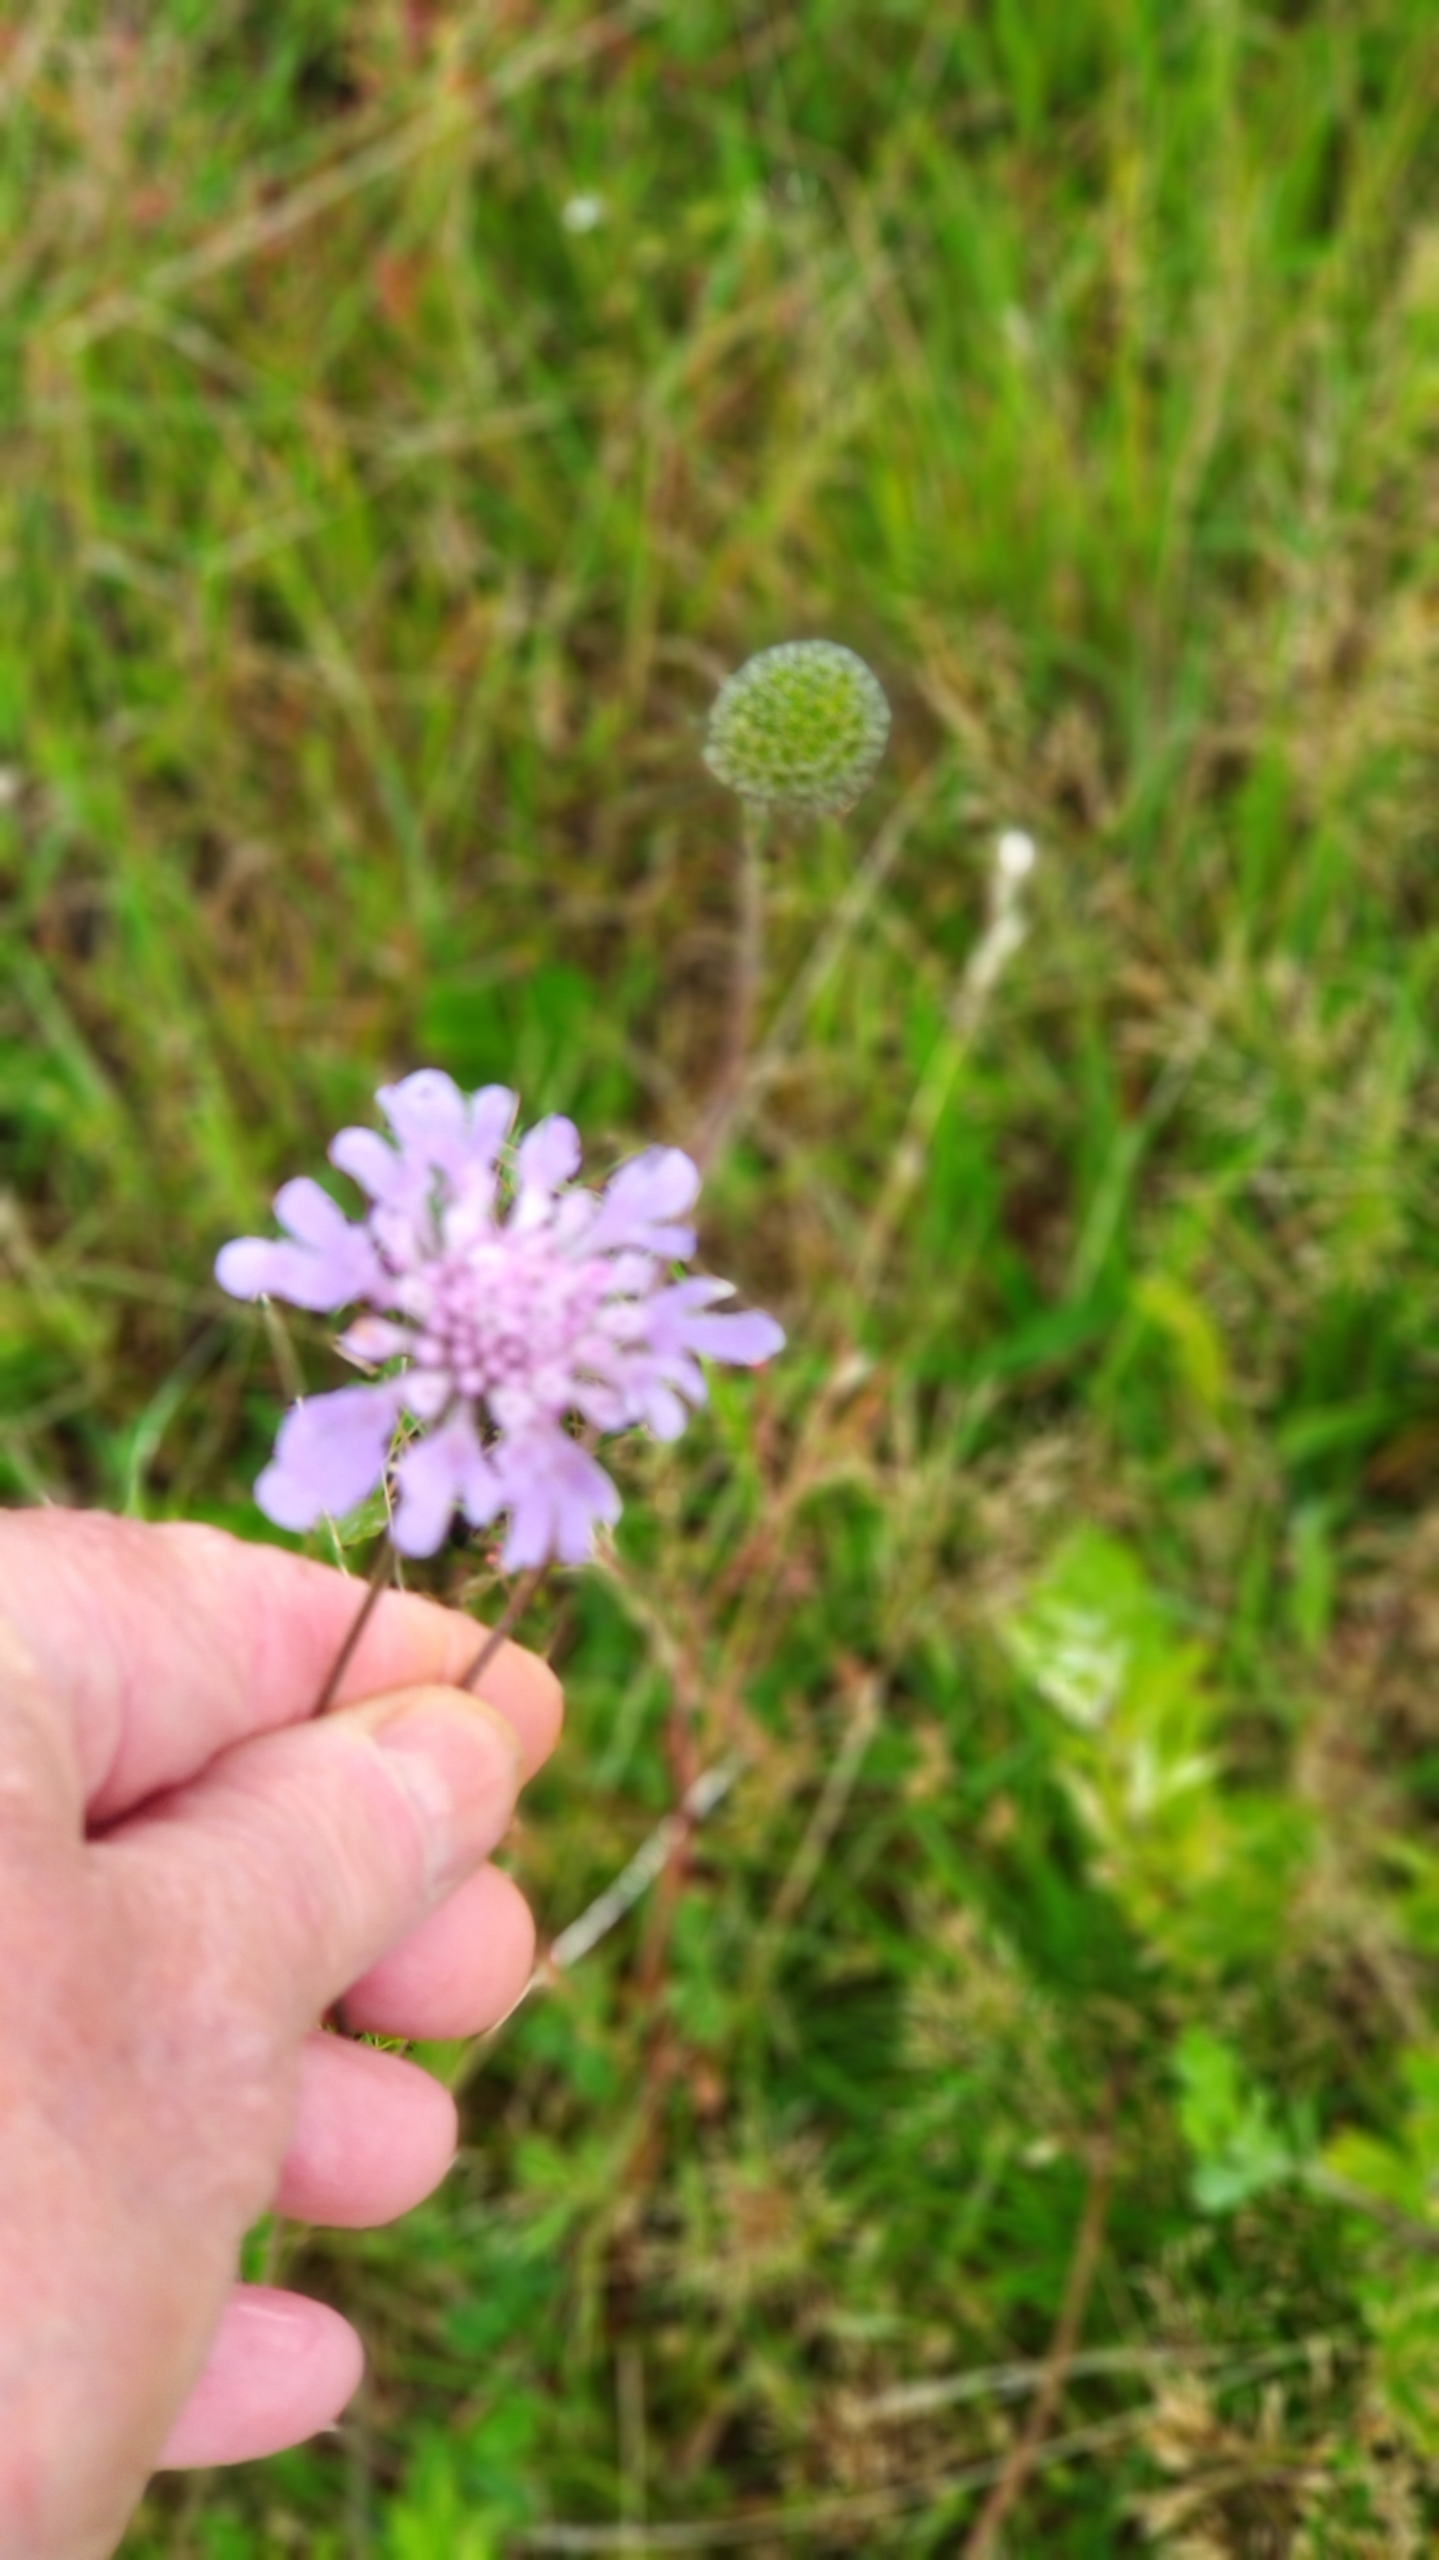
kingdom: Plantae
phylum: Tracheophyta
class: Magnoliopsida
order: Dipsacales
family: Caprifoliaceae
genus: Scabiosa
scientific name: Scabiosa columbaria
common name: Due-skabiose
